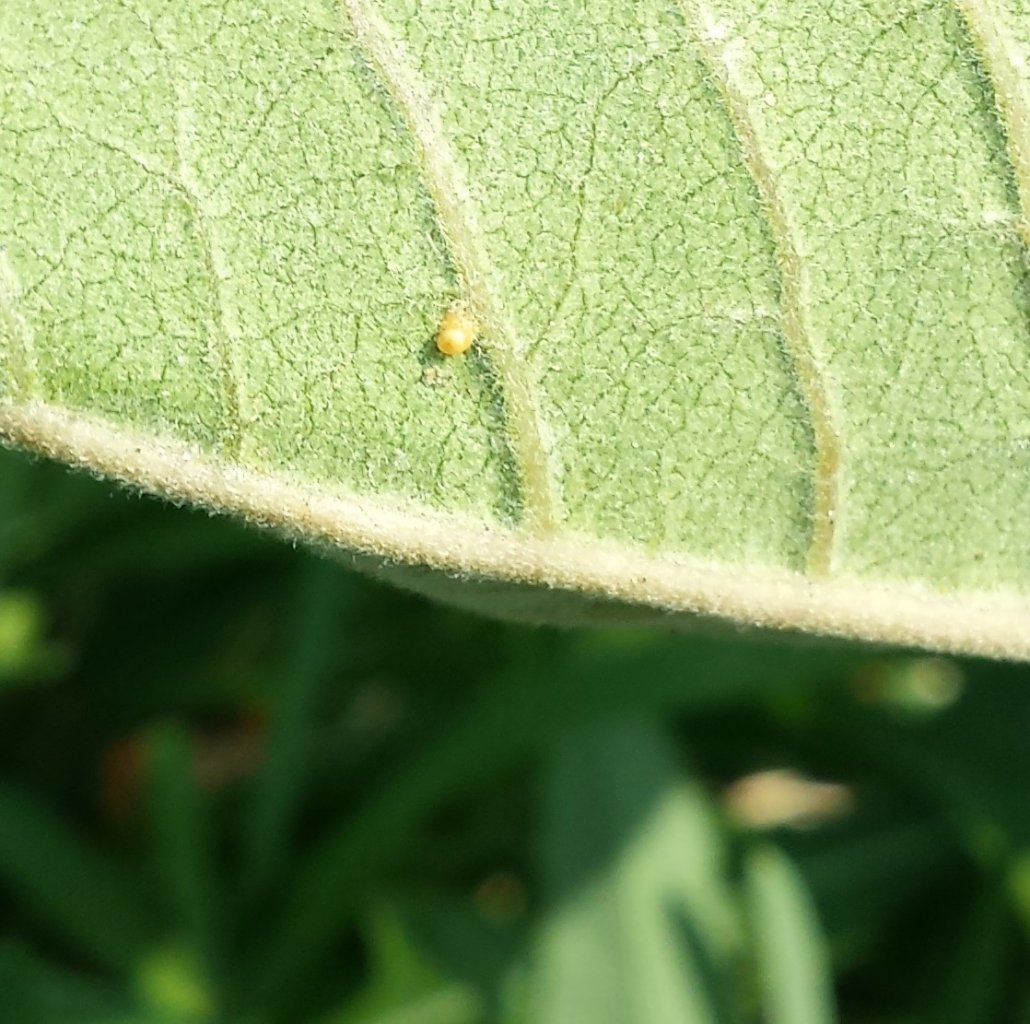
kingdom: Animalia
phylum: Arthropoda
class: Insecta
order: Lepidoptera
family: Nymphalidae
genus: Danaus
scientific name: Danaus plexippus
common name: Monarch
